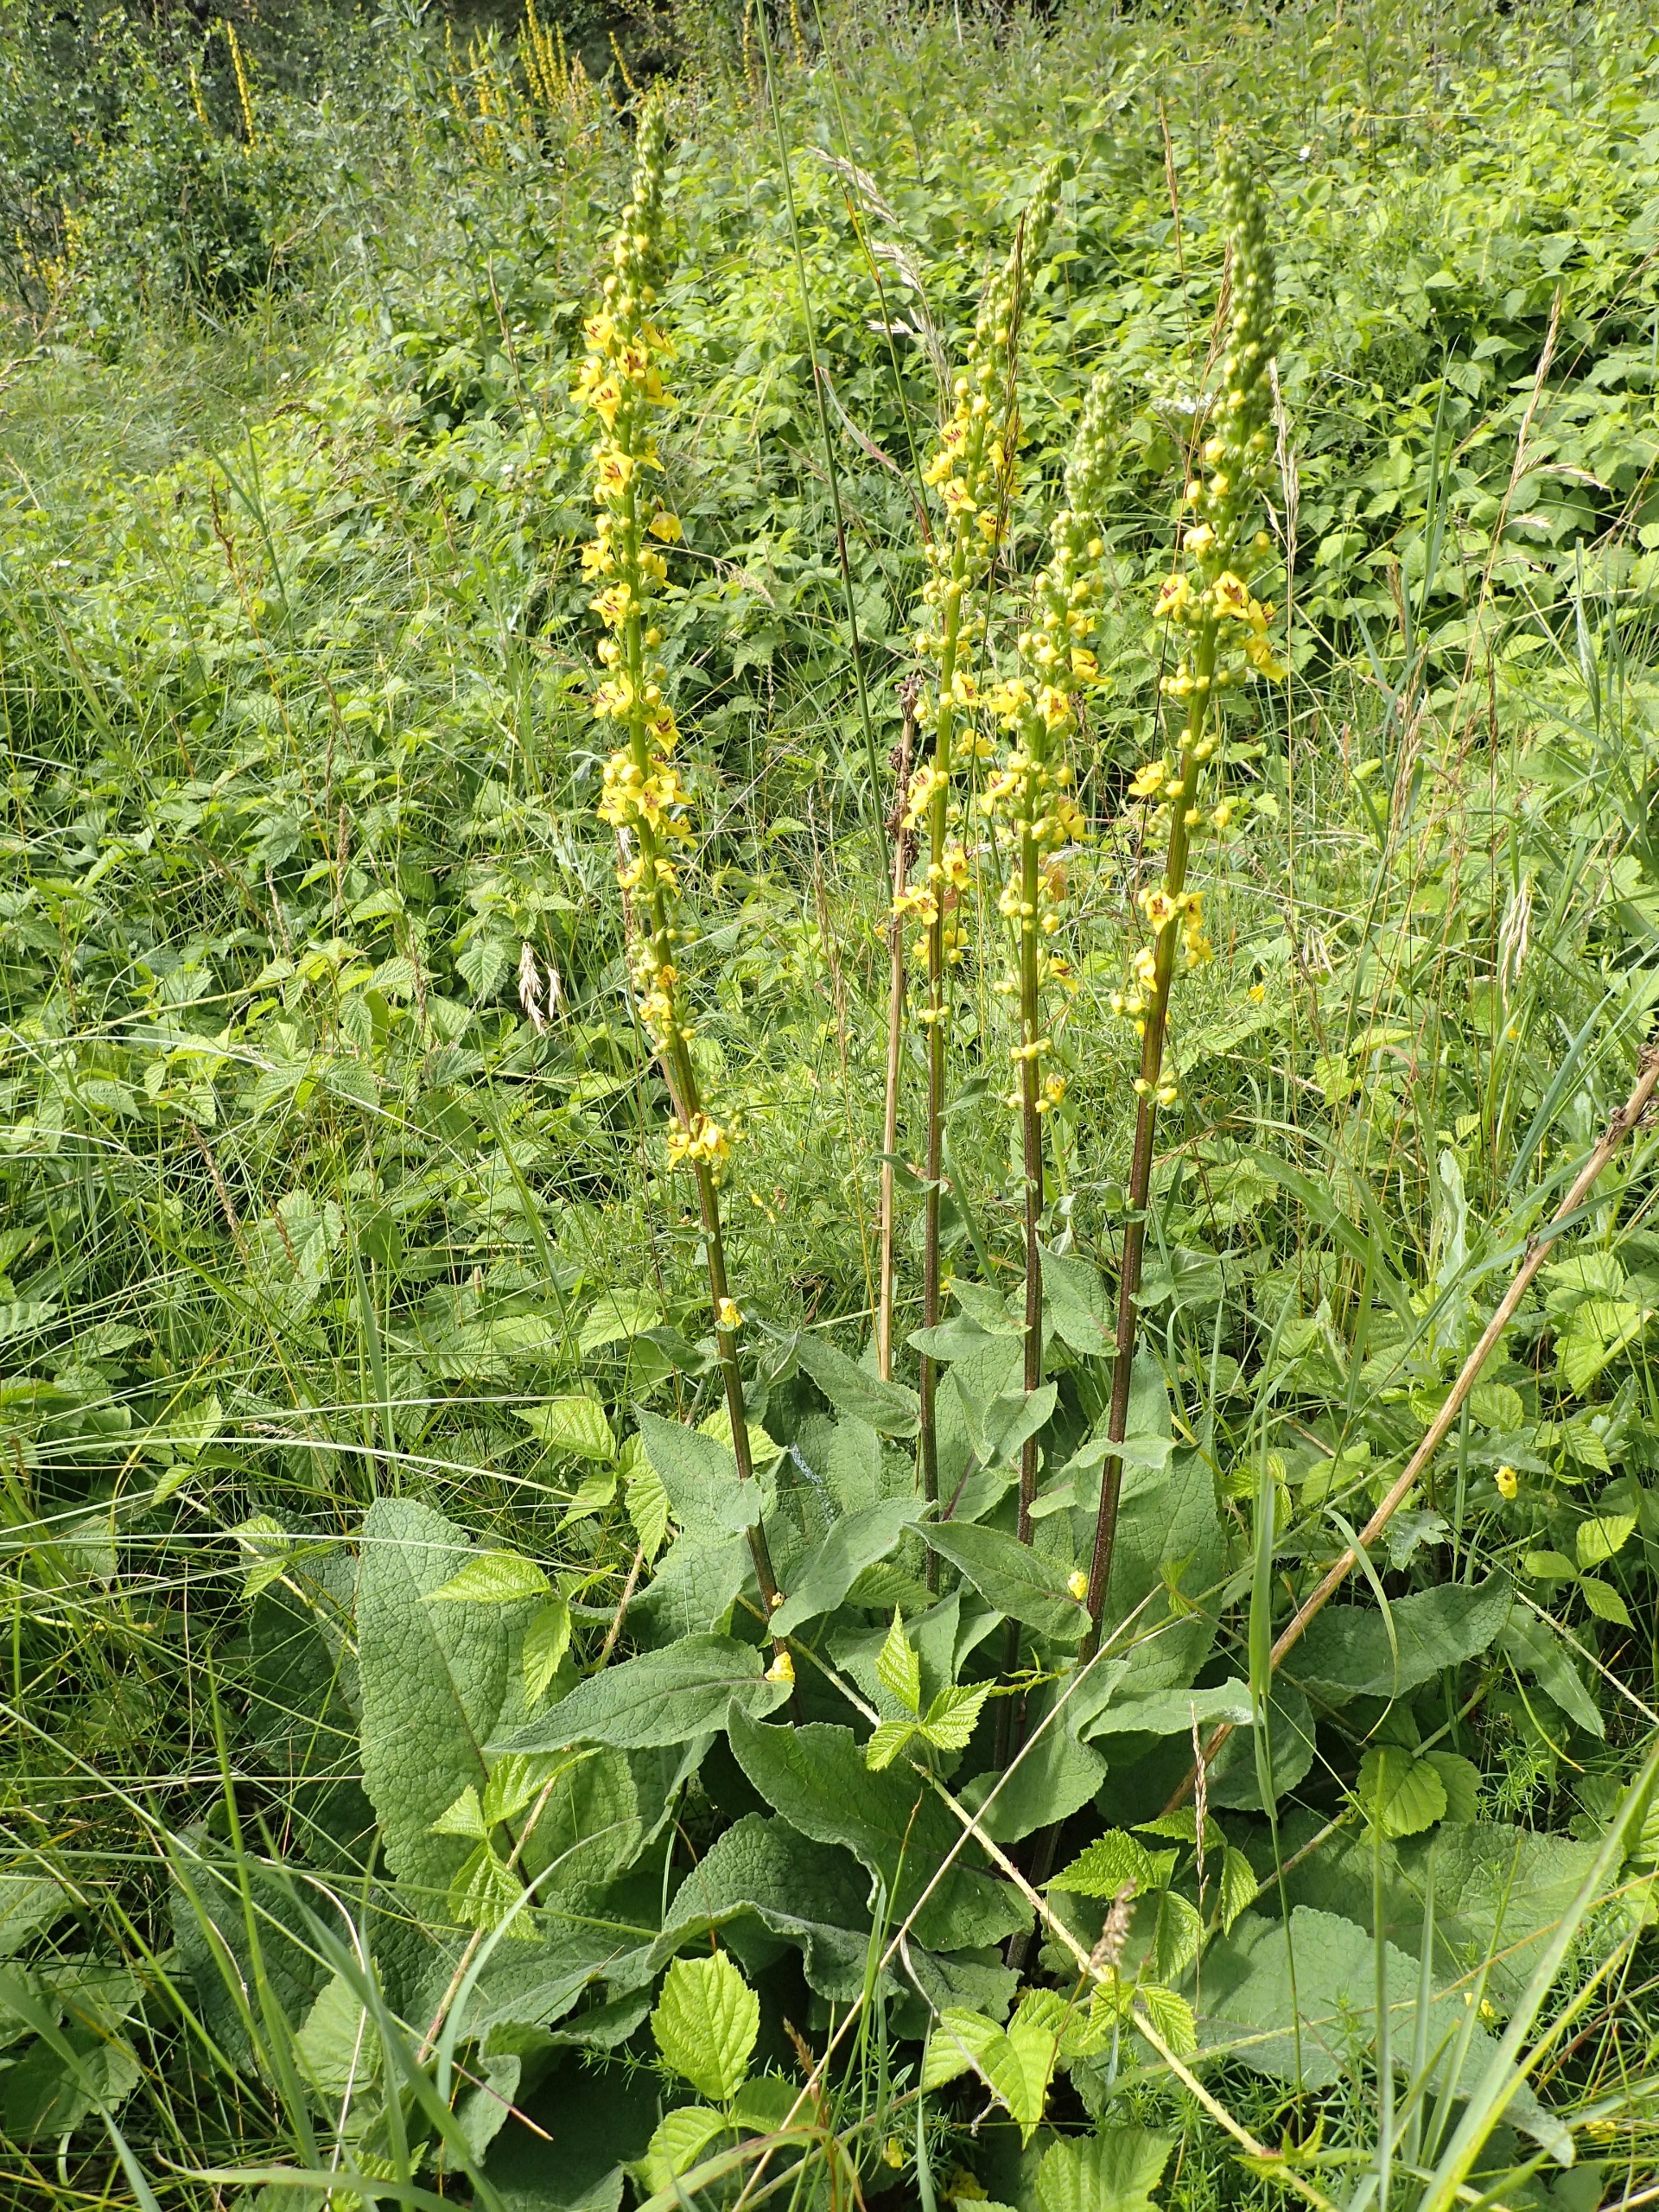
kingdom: Plantae
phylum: Tracheophyta
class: Magnoliopsida
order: Lamiales
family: Scrophulariaceae
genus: Verbascum
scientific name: Verbascum nigrum
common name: Mørk kongelys
